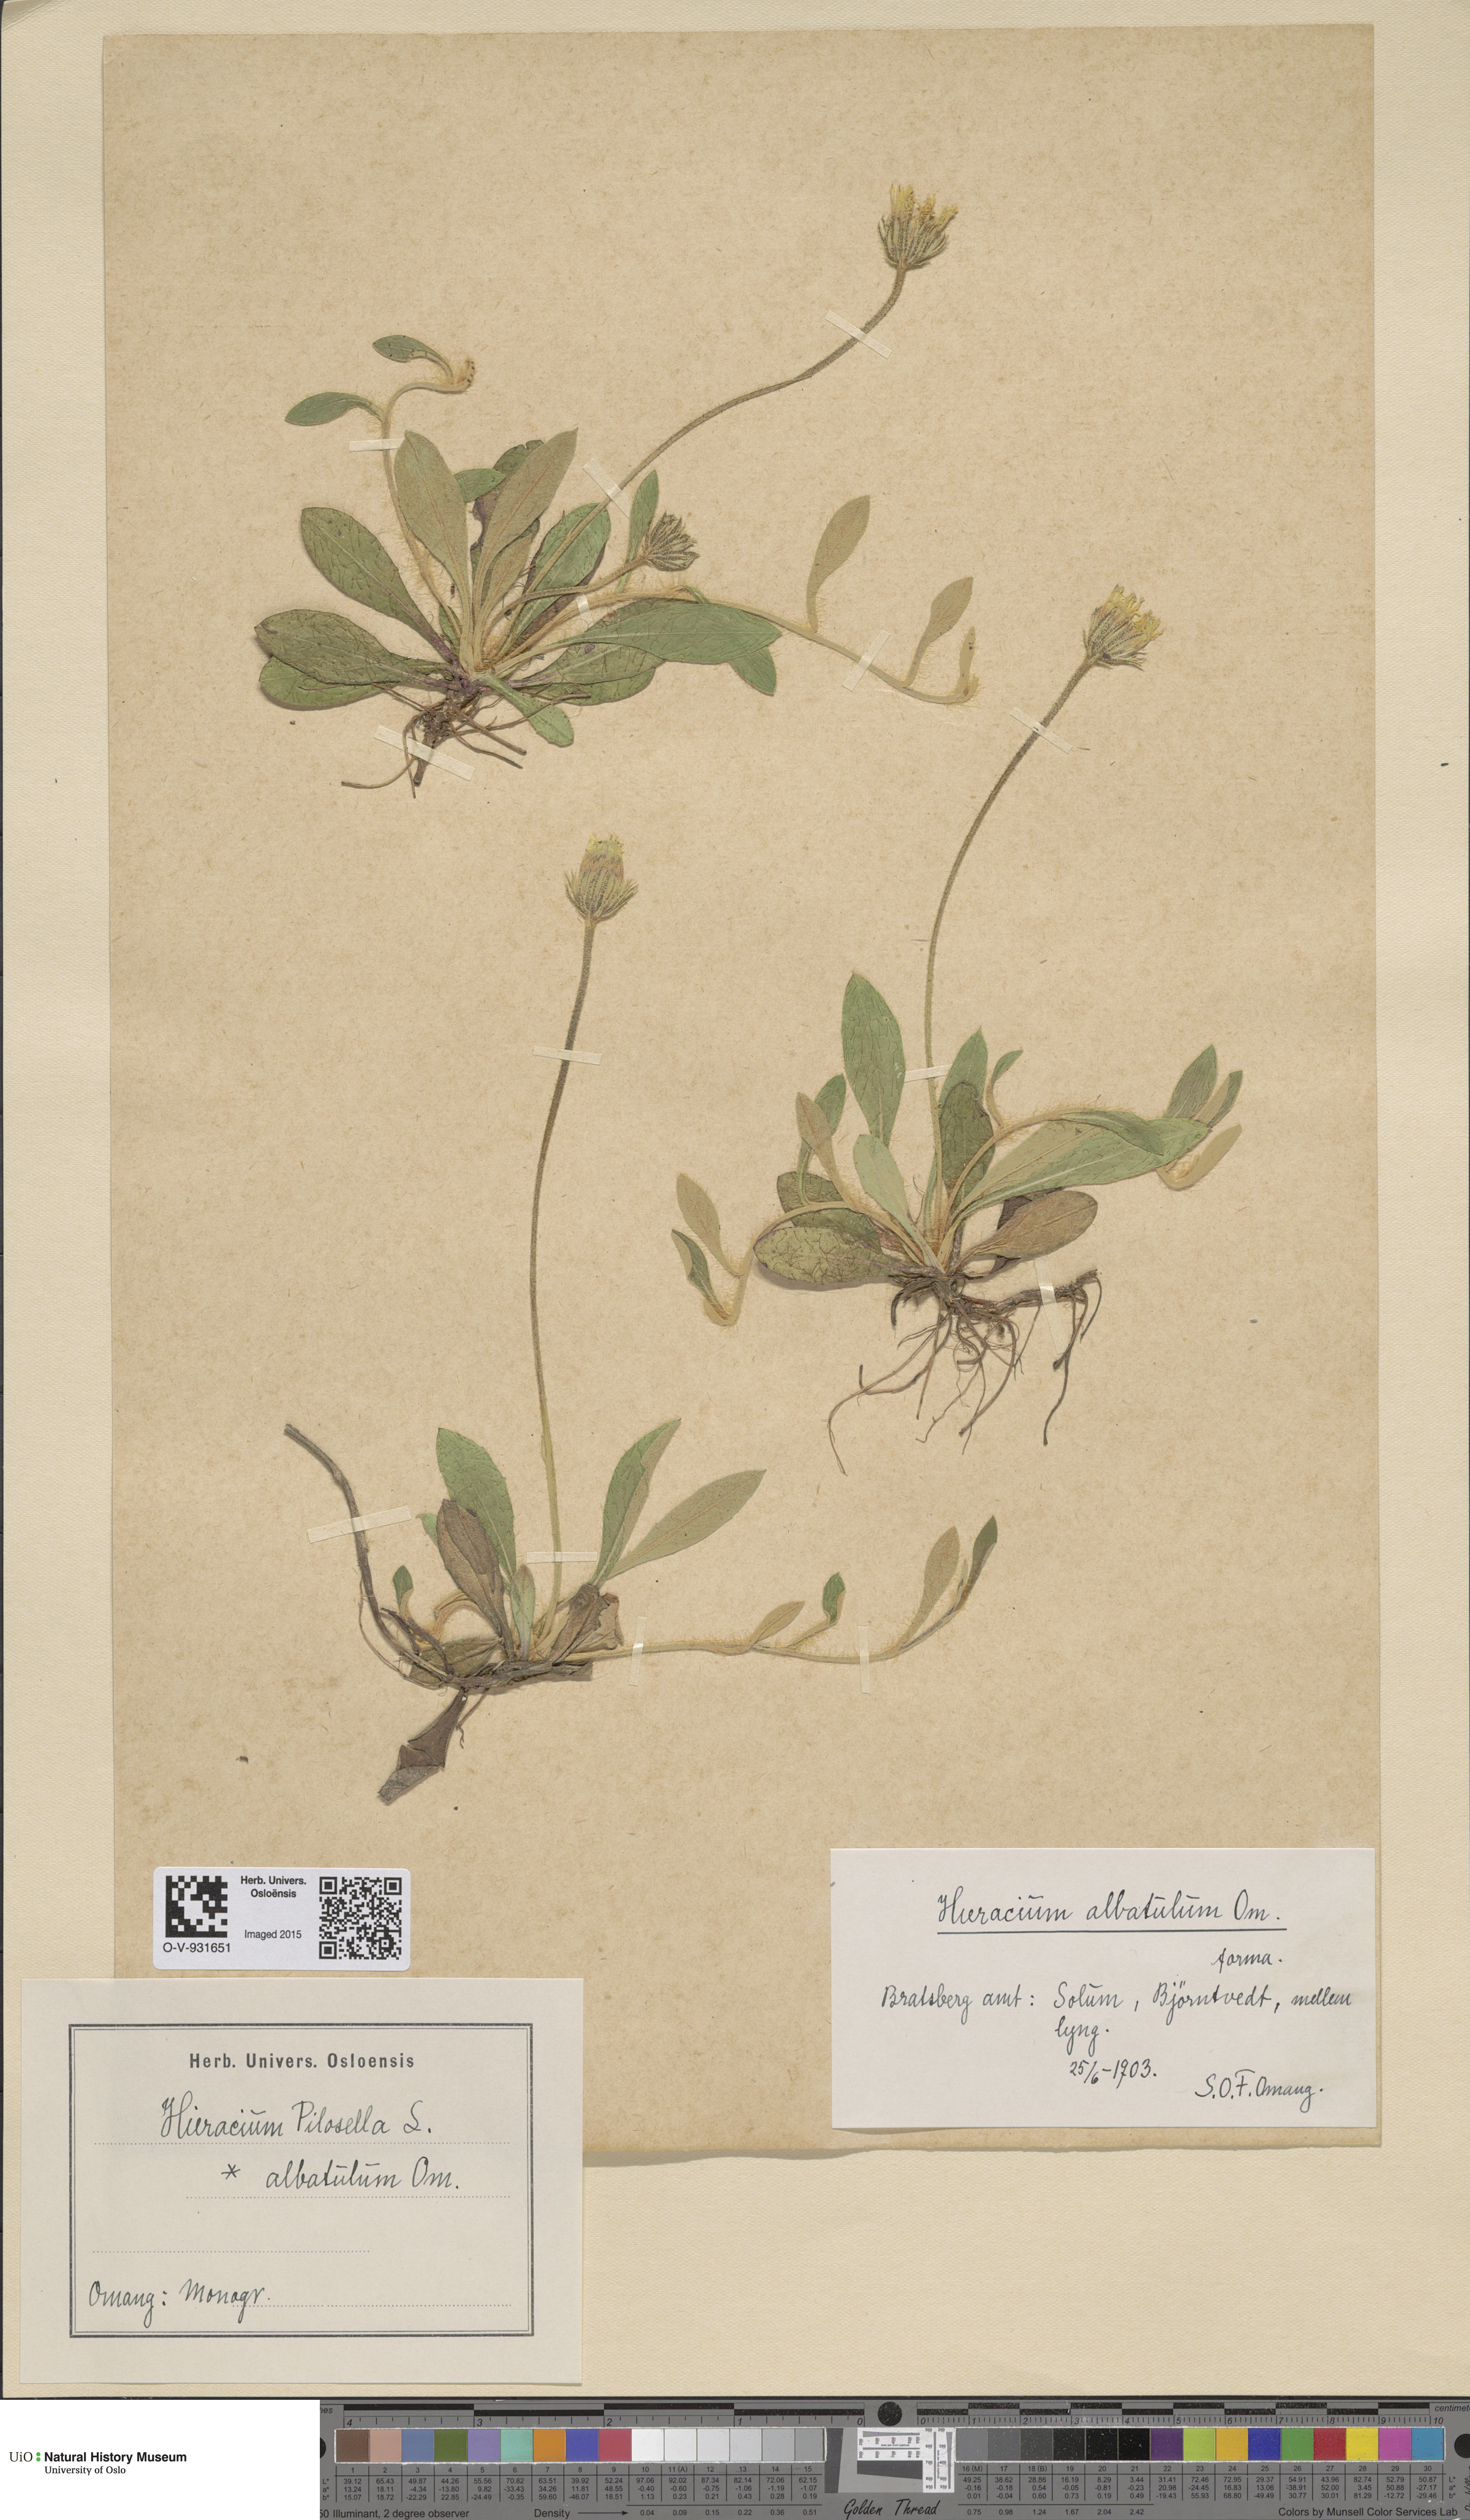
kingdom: Plantae
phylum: Tracheophyta
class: Magnoliopsida
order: Asterales
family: Asteraceae
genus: Pilosella
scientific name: Pilosella officinarum
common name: Mouse-ear hawkweed
